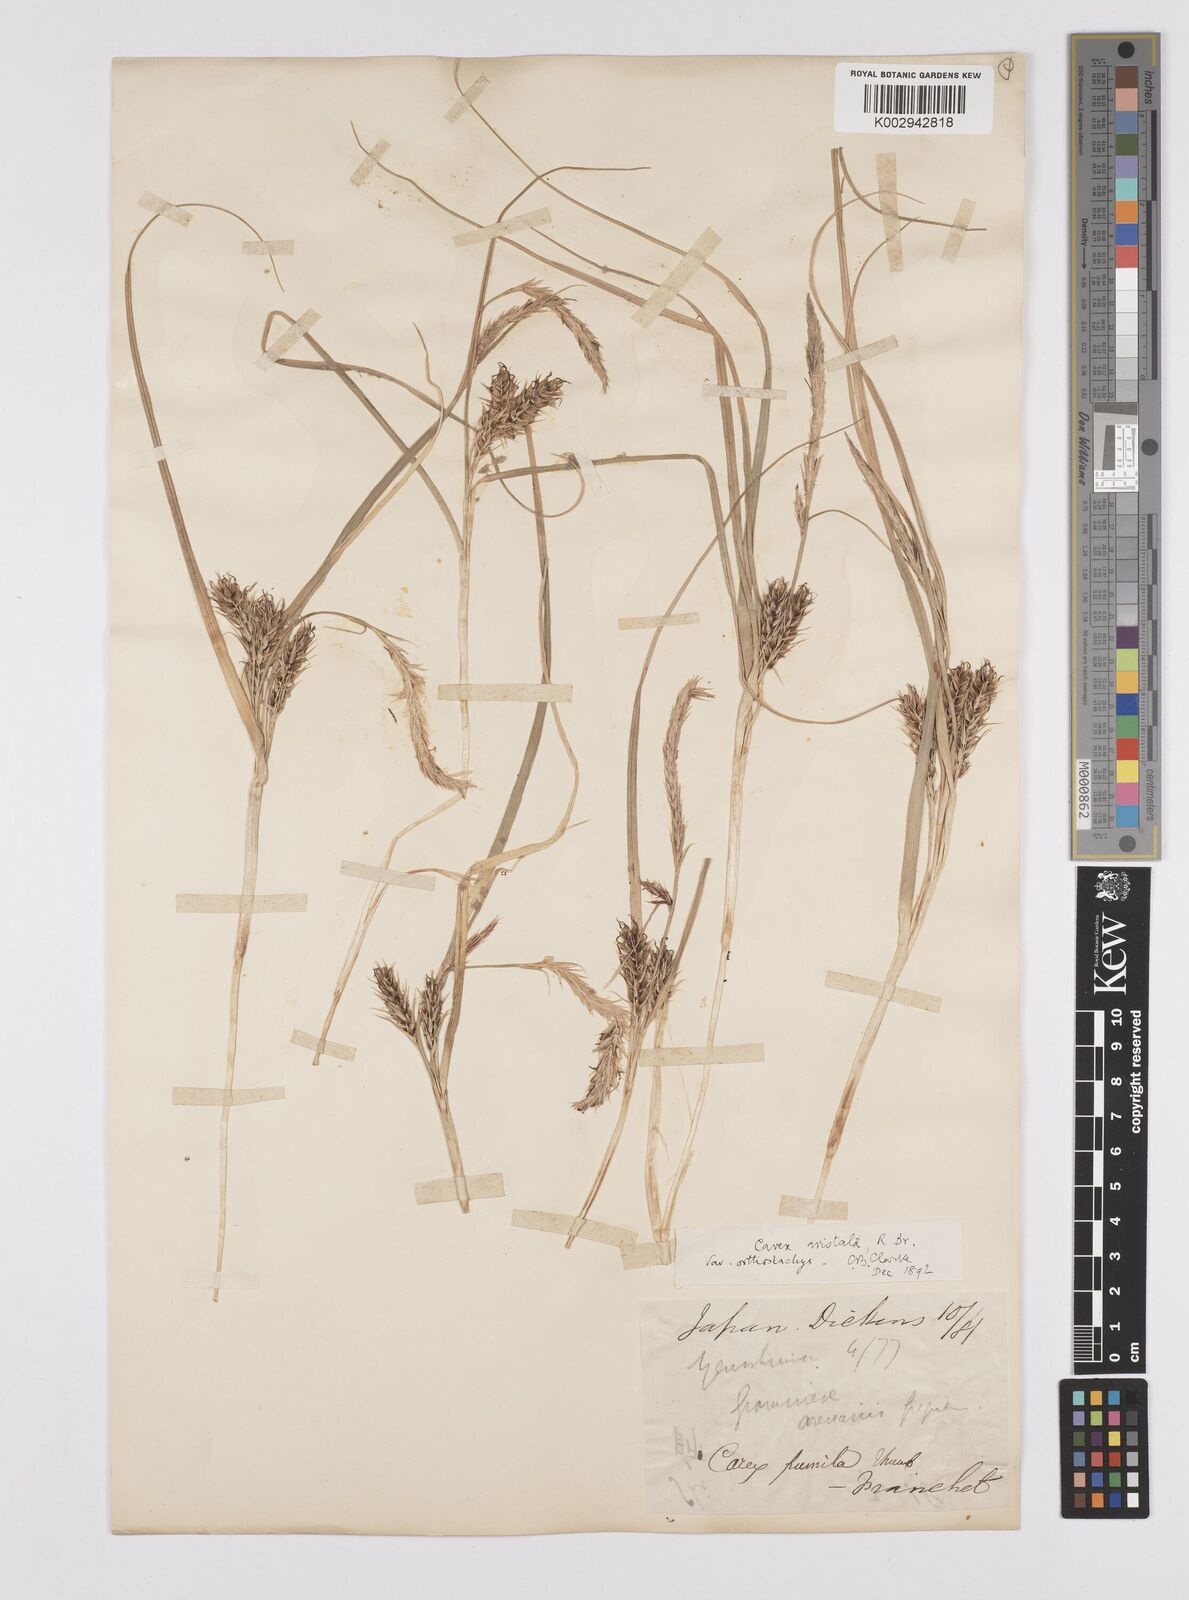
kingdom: Plantae
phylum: Tracheophyta
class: Liliopsida
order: Poales
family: Cyperaceae
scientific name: Cyperaceae
